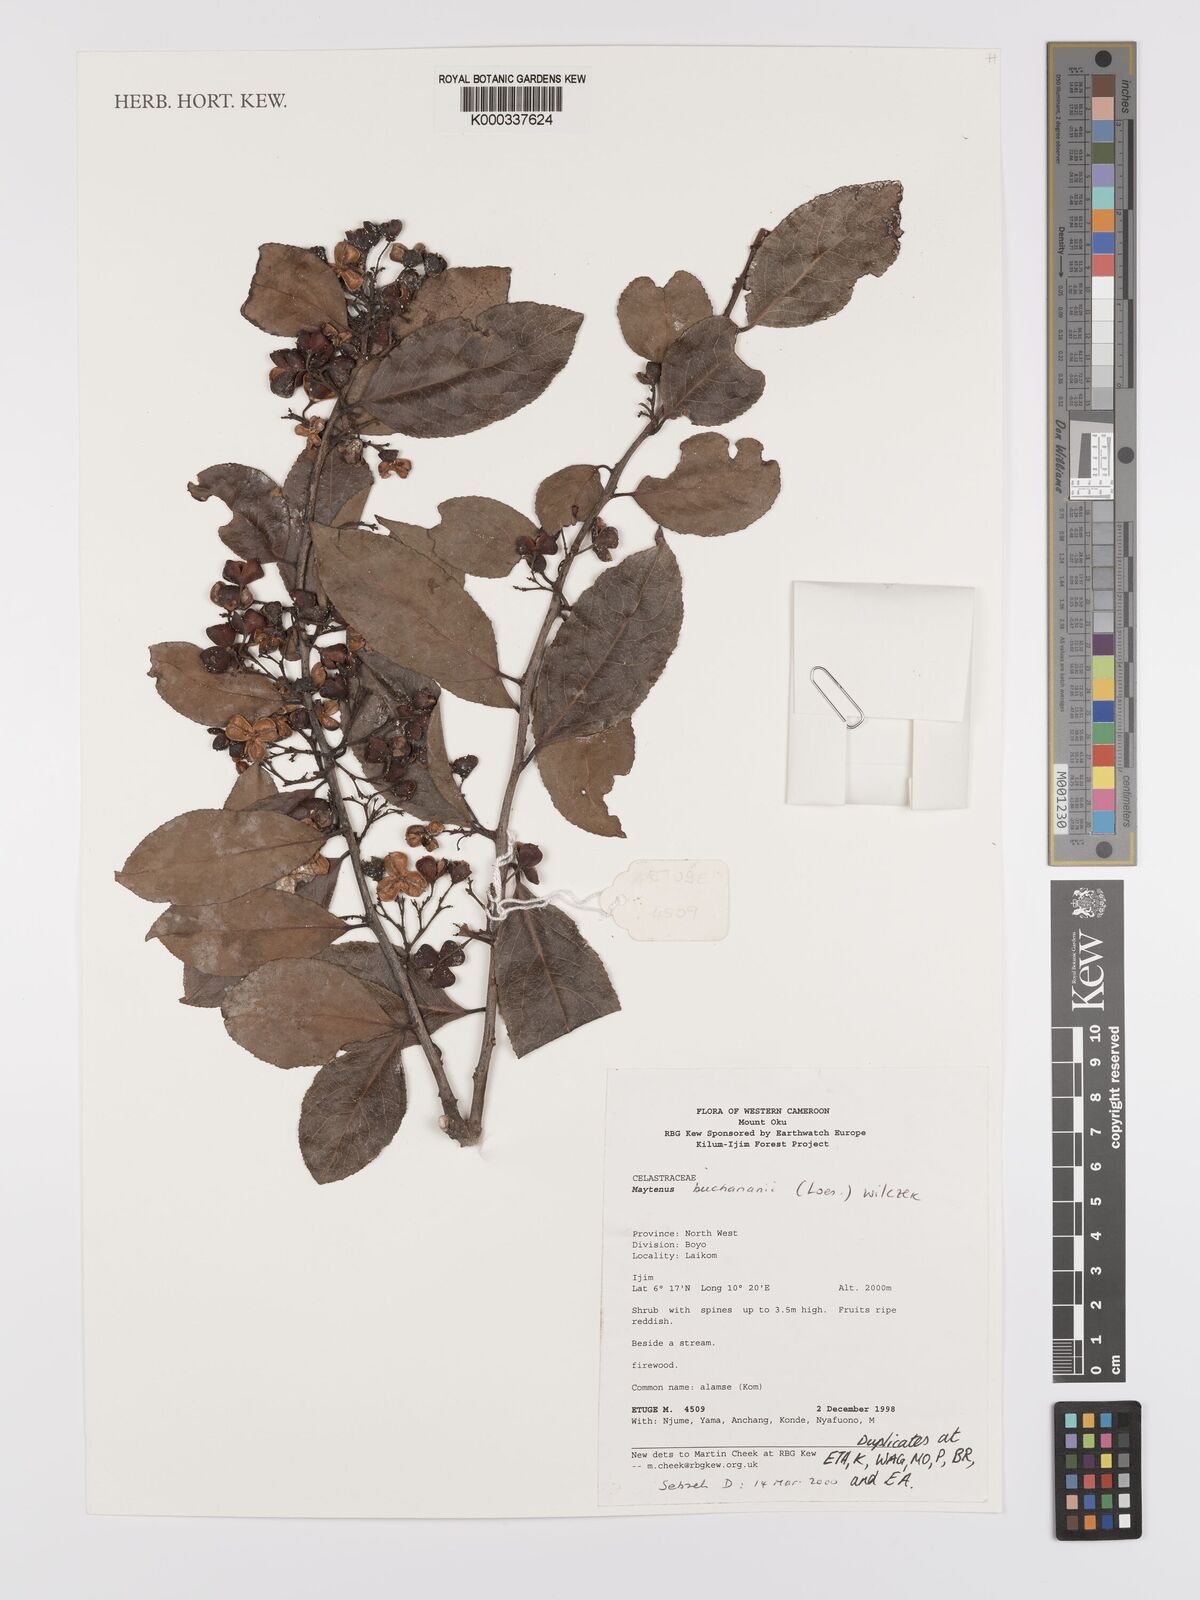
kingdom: Plantae
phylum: Tracheophyta
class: Magnoliopsida
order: Celastrales
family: Celastraceae
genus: Gymnosporia
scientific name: Gymnosporia buchananii
